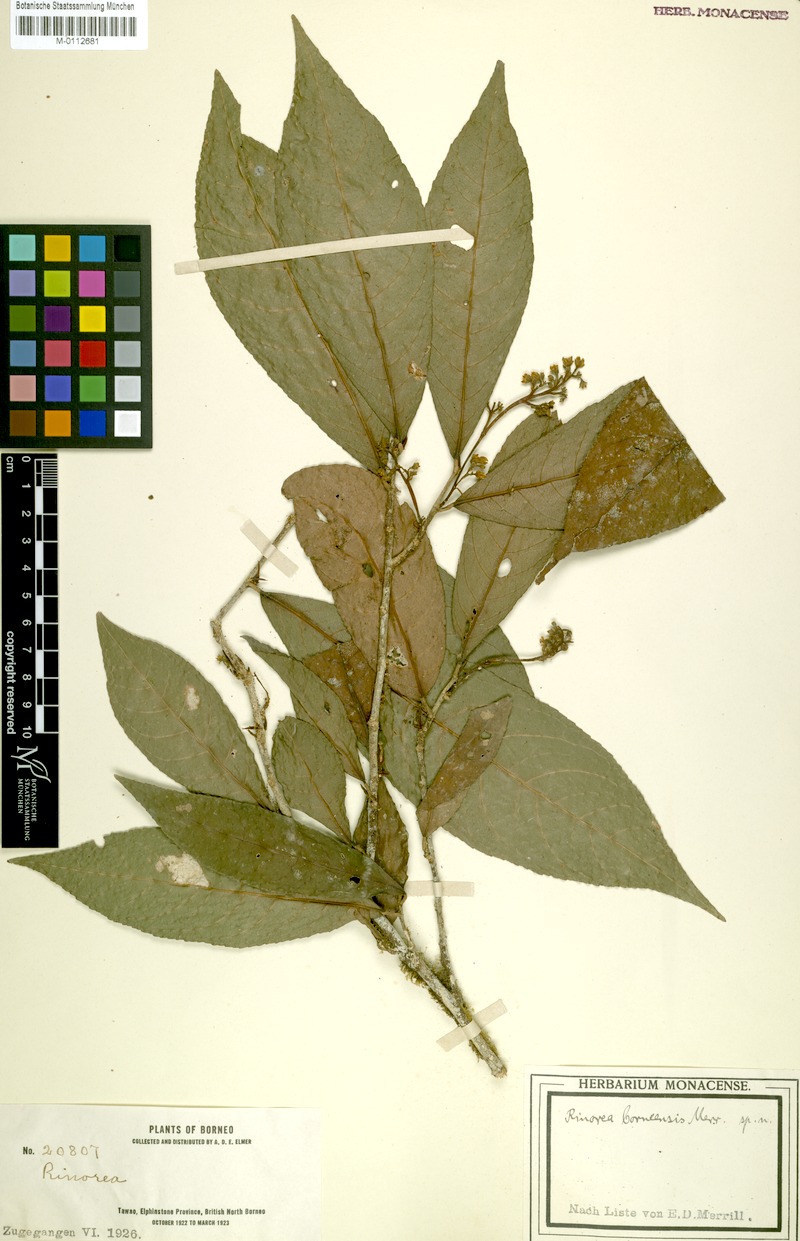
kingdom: Plantae
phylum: Tracheophyta
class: Magnoliopsida
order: Malpighiales
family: Violaceae
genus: Rinorea
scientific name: Rinorea longiracemosa
